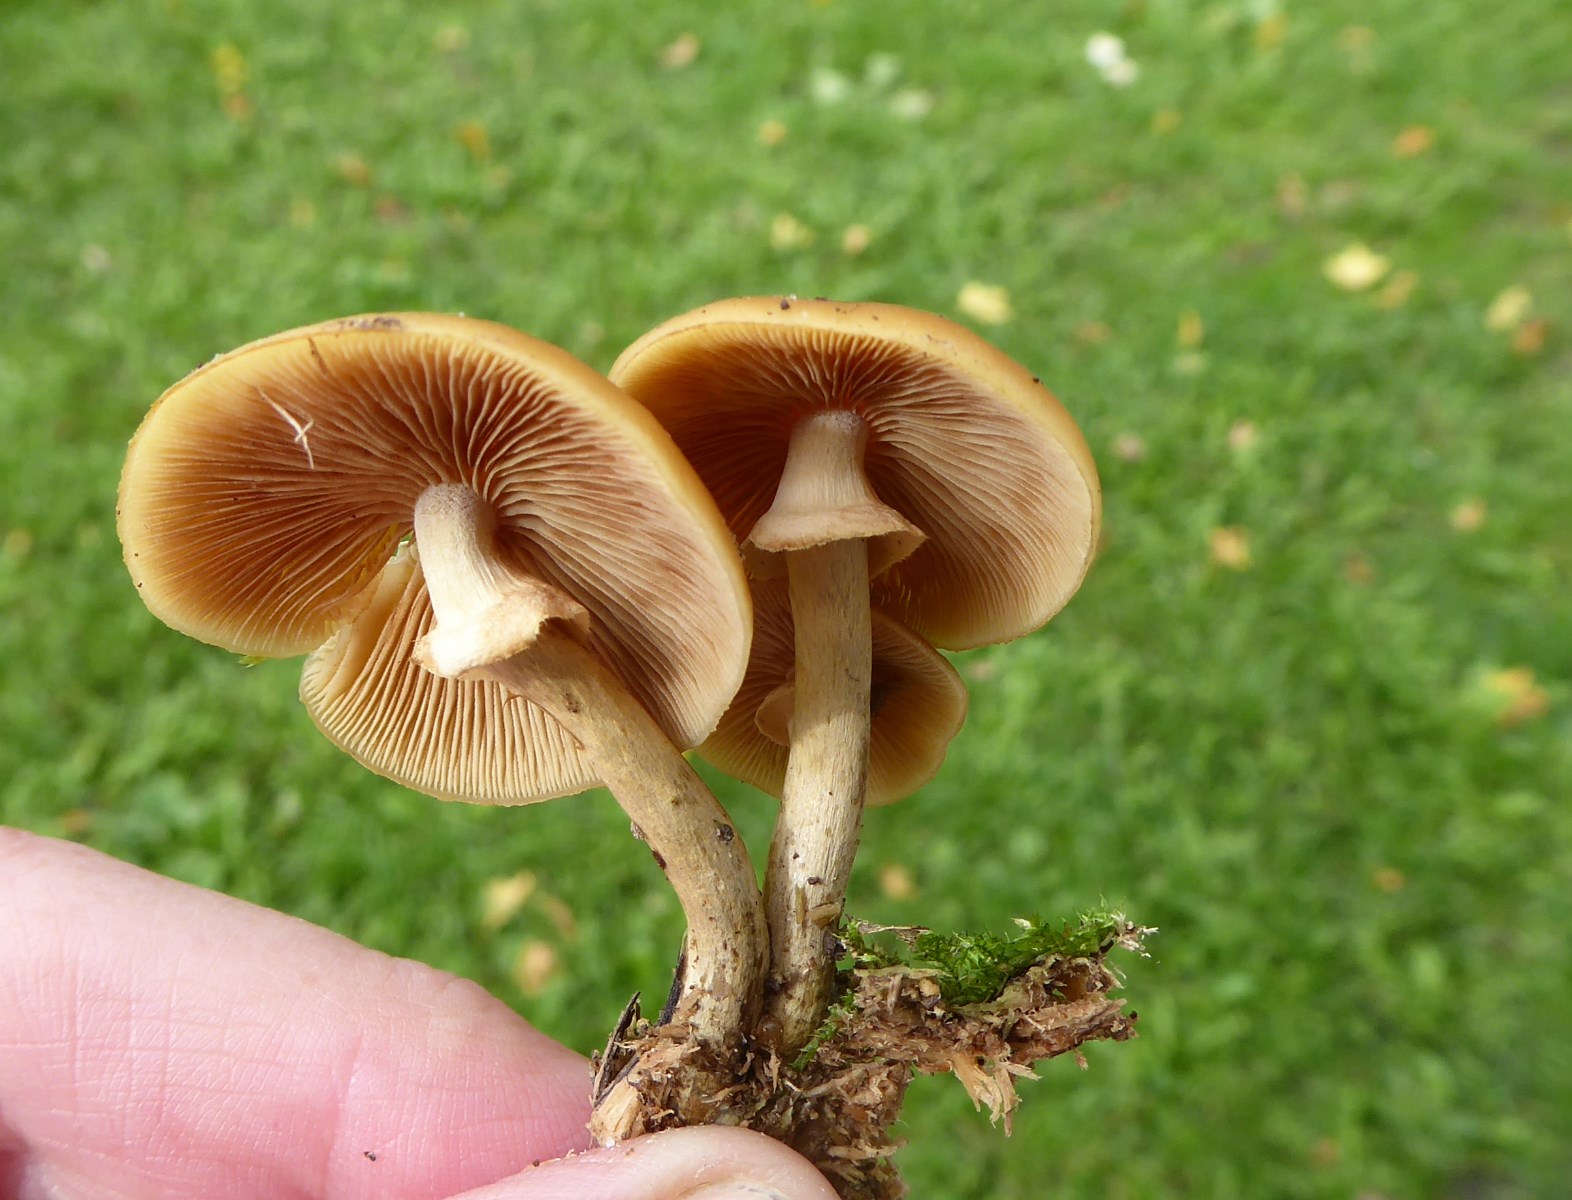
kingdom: Fungi
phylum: Basidiomycota
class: Agaricomycetes
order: Agaricales
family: Hymenogastraceae
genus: Galerina
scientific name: Galerina marginata
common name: randbæltet hjelmhat
